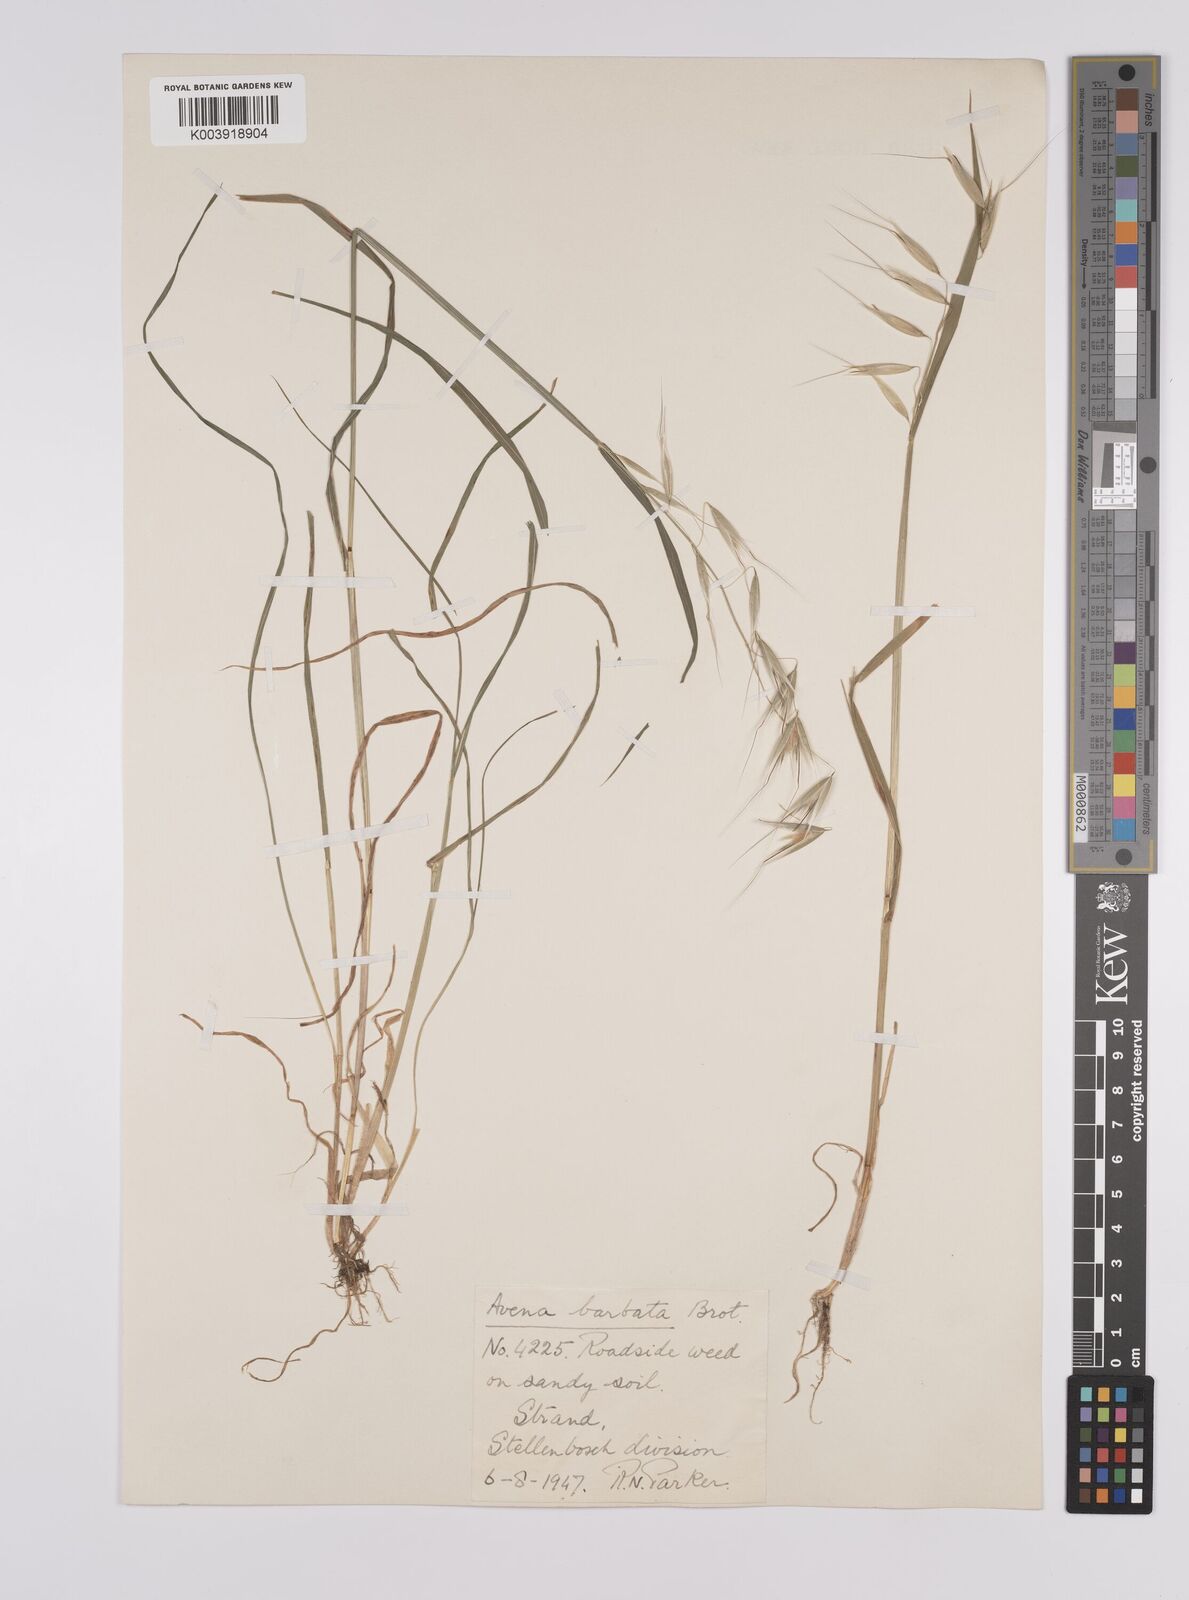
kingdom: Plantae
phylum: Tracheophyta
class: Liliopsida
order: Poales
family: Poaceae
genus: Avena
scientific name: Avena
